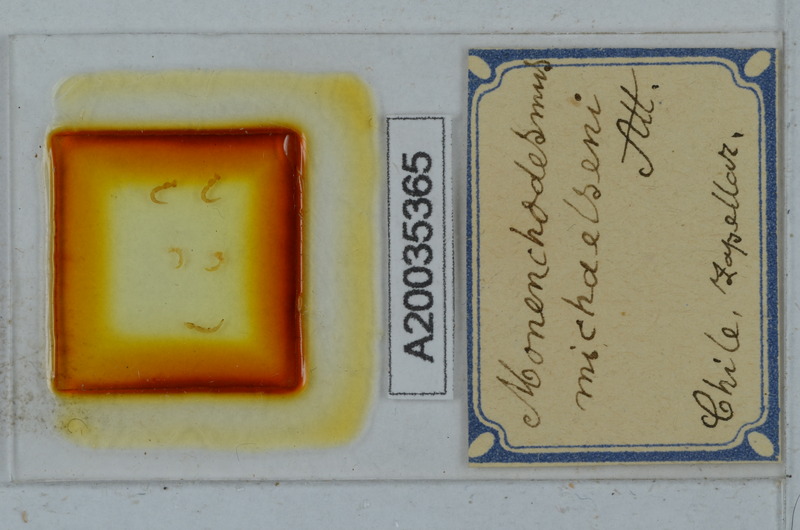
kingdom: Animalia
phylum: Arthropoda
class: Diplopoda
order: Polydesmida
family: Dalodesmidae
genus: Monenchodesmus
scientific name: Monenchodesmus michaelseni
